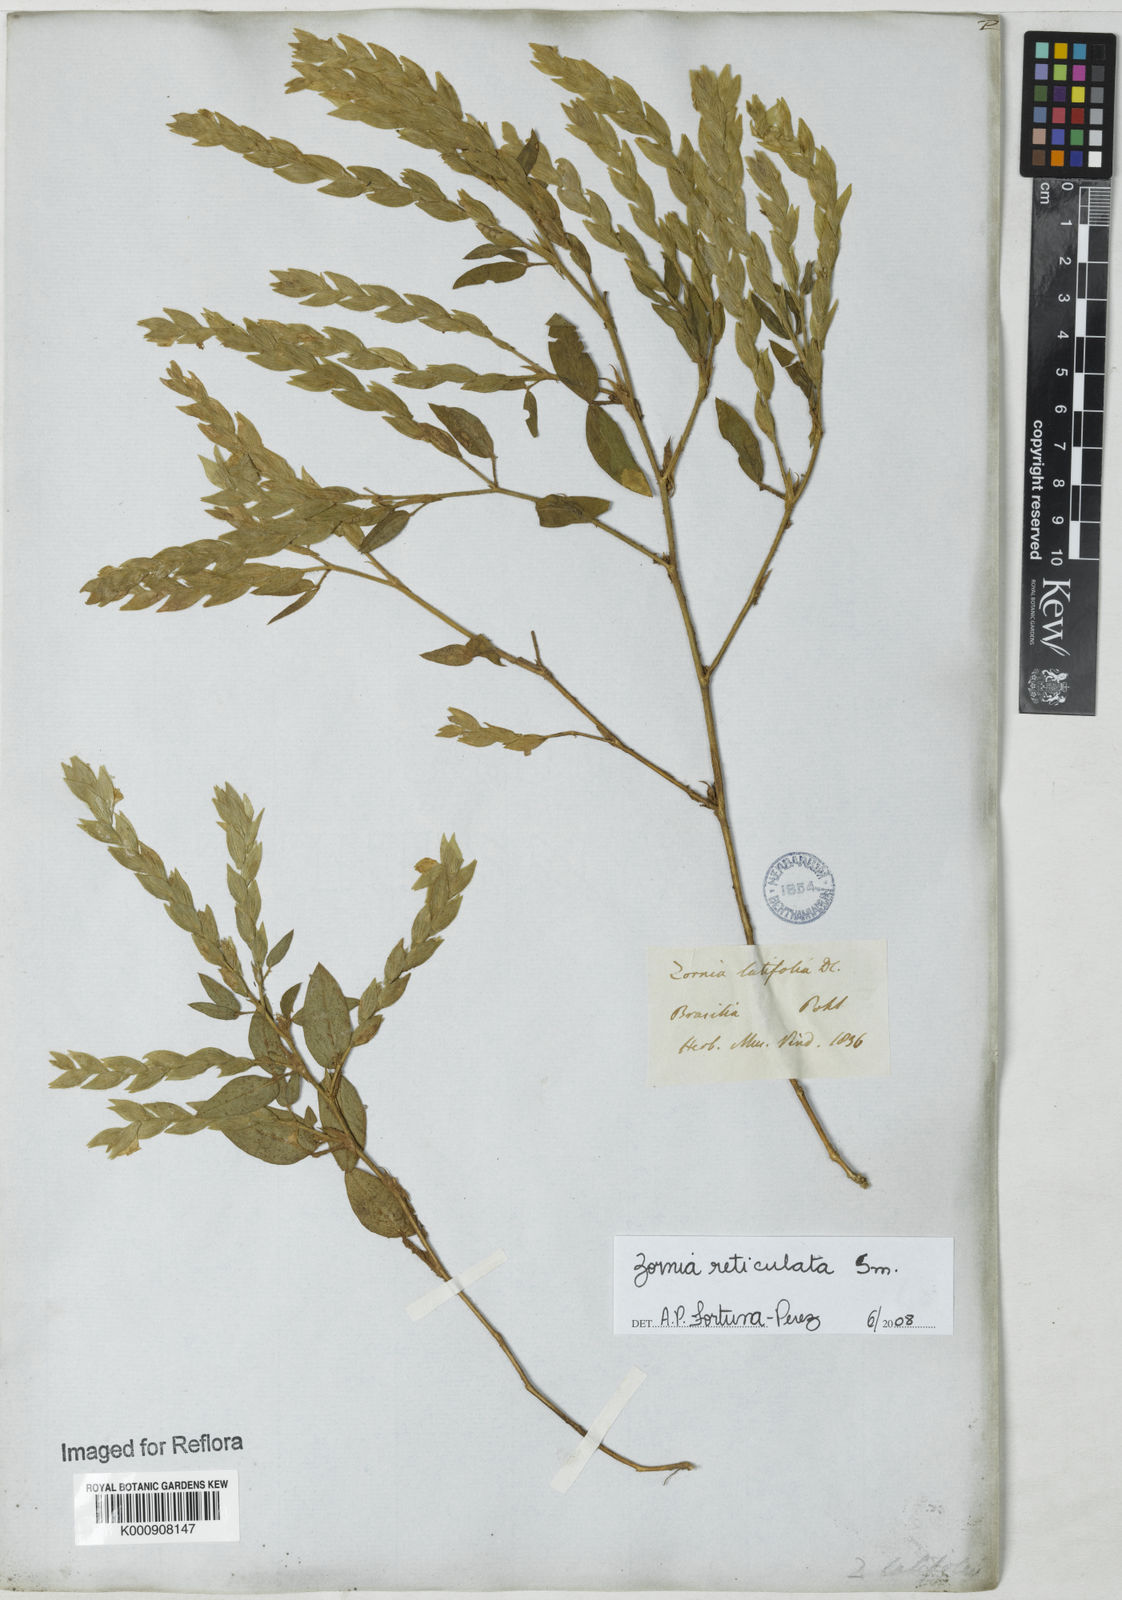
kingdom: Plantae
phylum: Tracheophyta
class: Magnoliopsida
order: Fabales
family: Fabaceae
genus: Zornia
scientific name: Zornia reticulata
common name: Reticulate viperina
